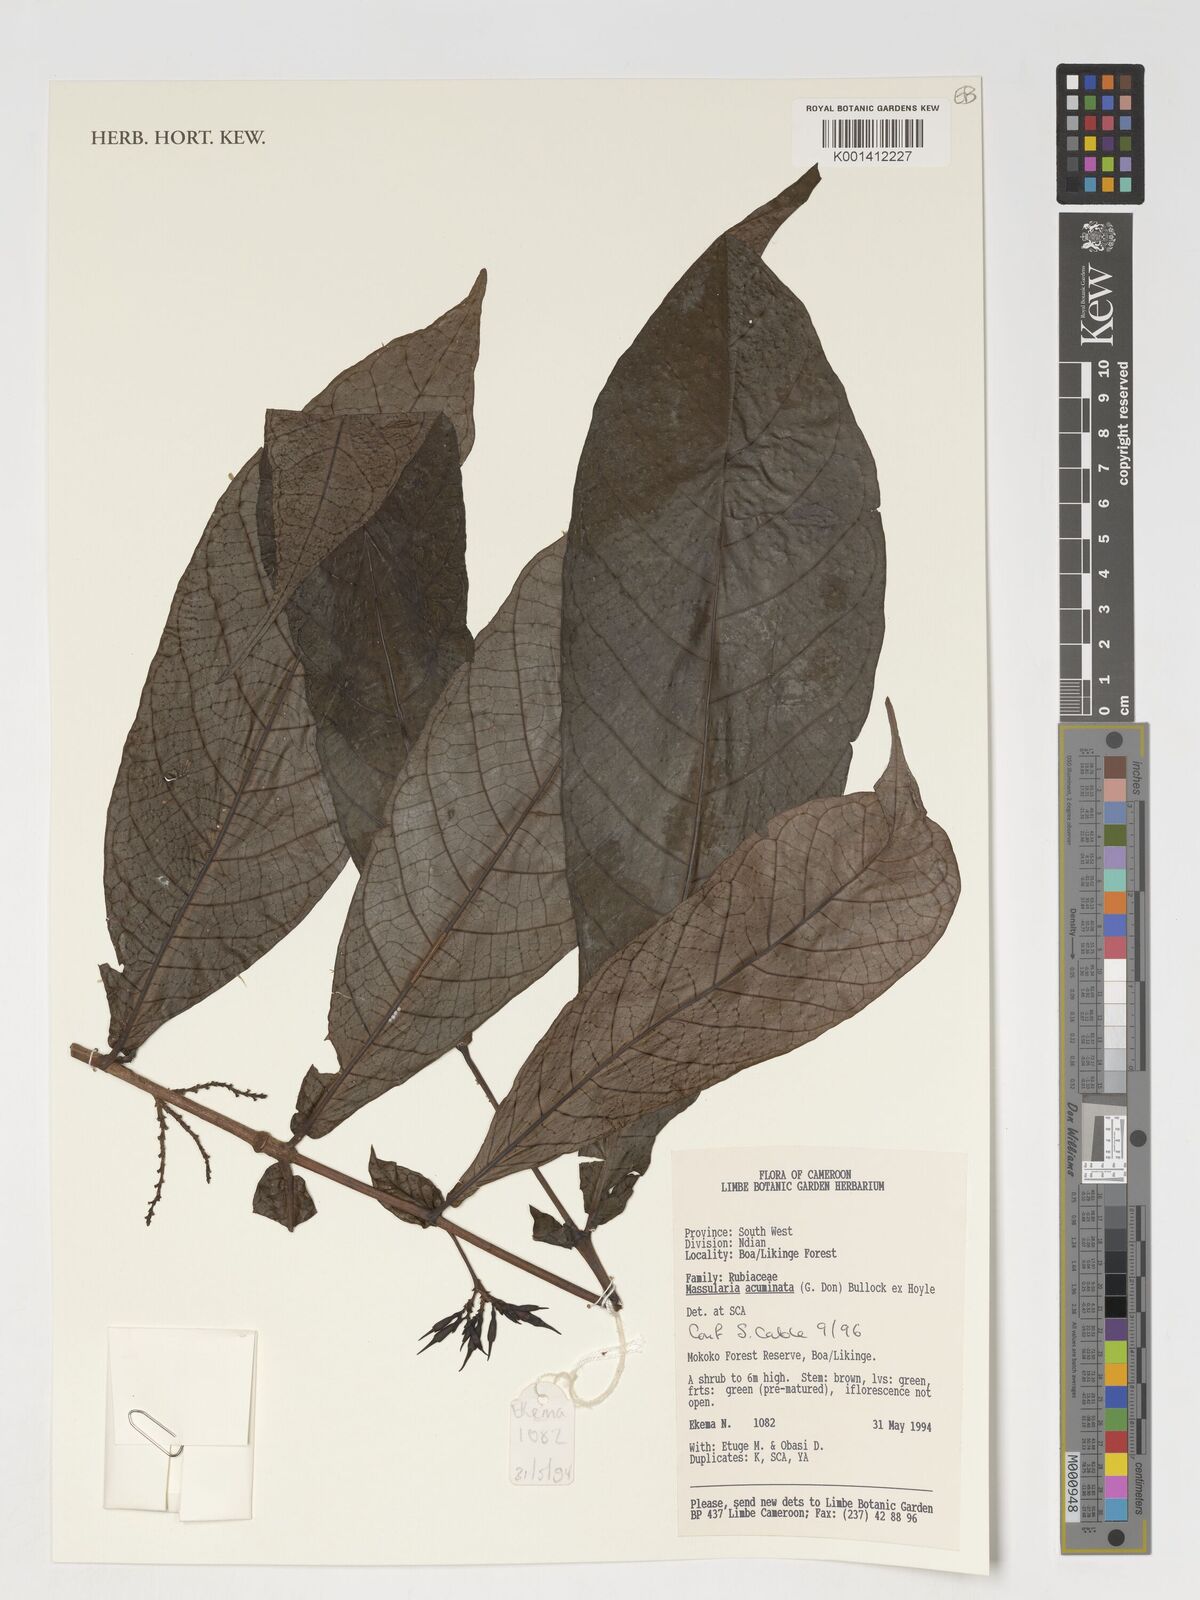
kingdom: Plantae
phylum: Tracheophyta
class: Magnoliopsida
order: Gentianales
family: Rubiaceae
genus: Massularia
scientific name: Massularia acuminata
